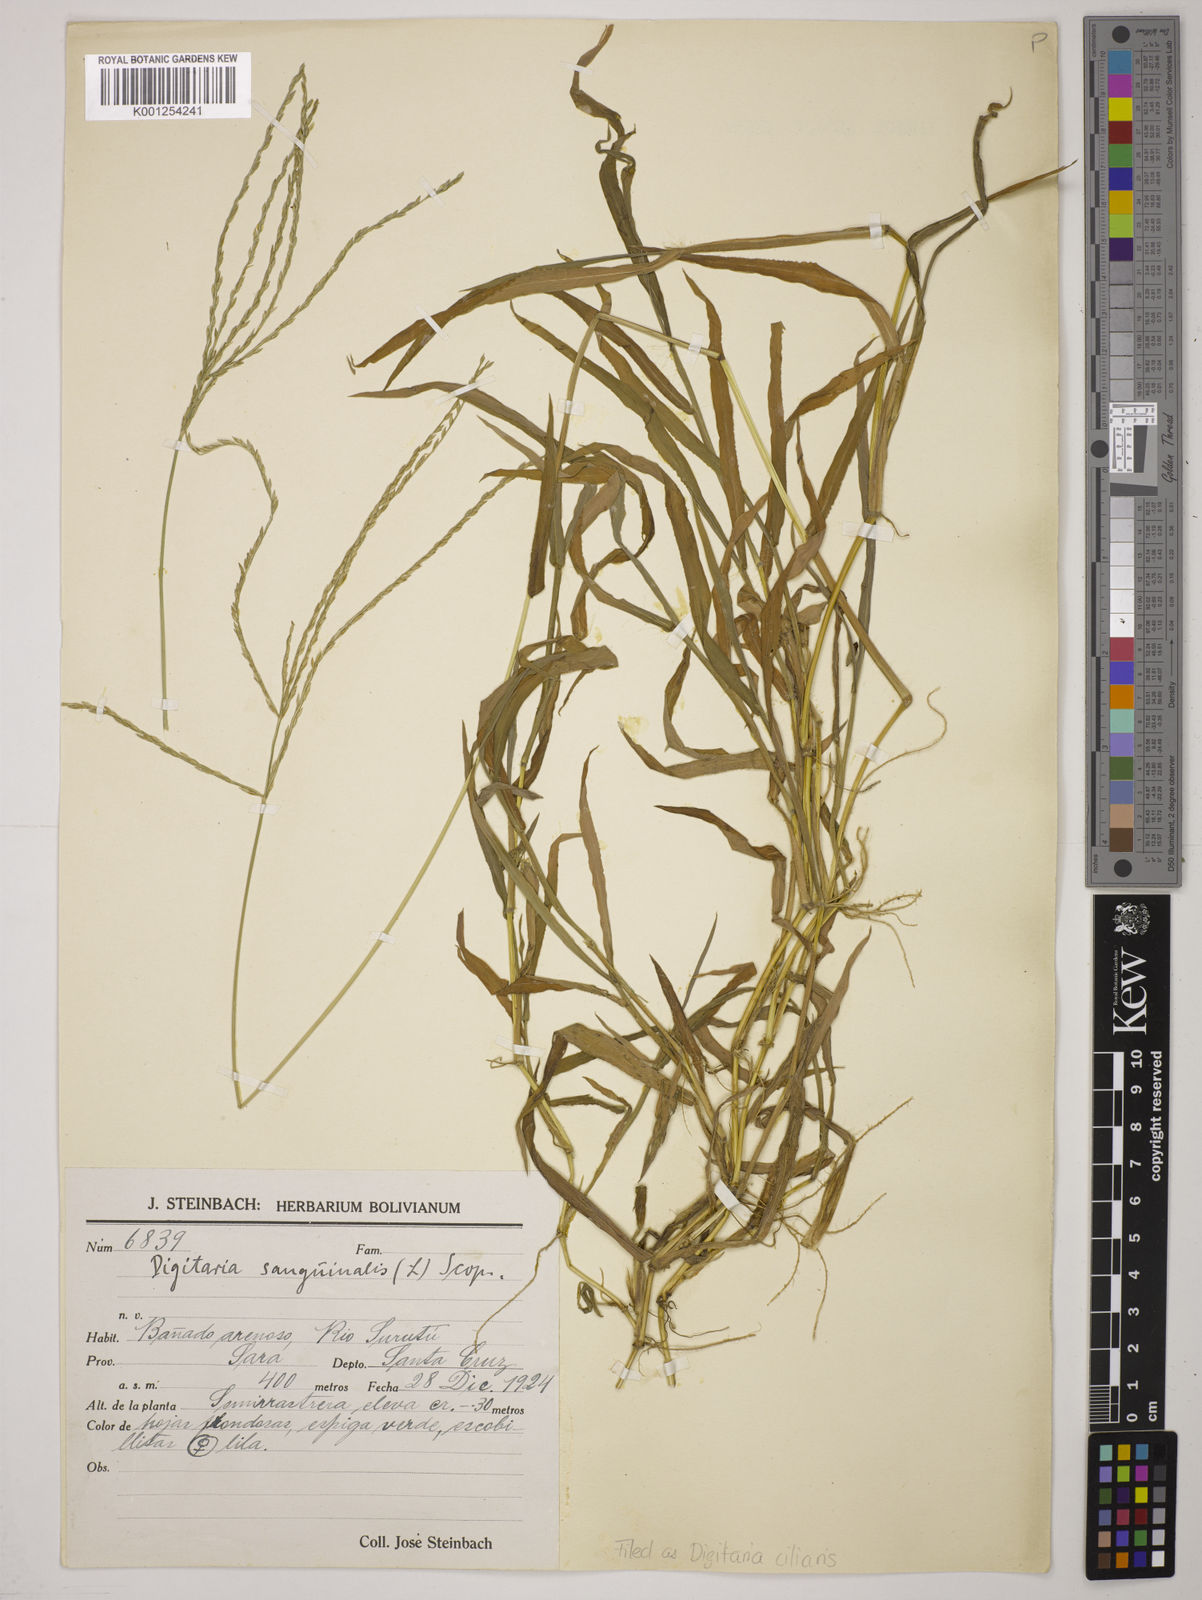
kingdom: Plantae
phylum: Tracheophyta
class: Liliopsida
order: Poales
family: Poaceae
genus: Digitaria
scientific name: Digitaria
